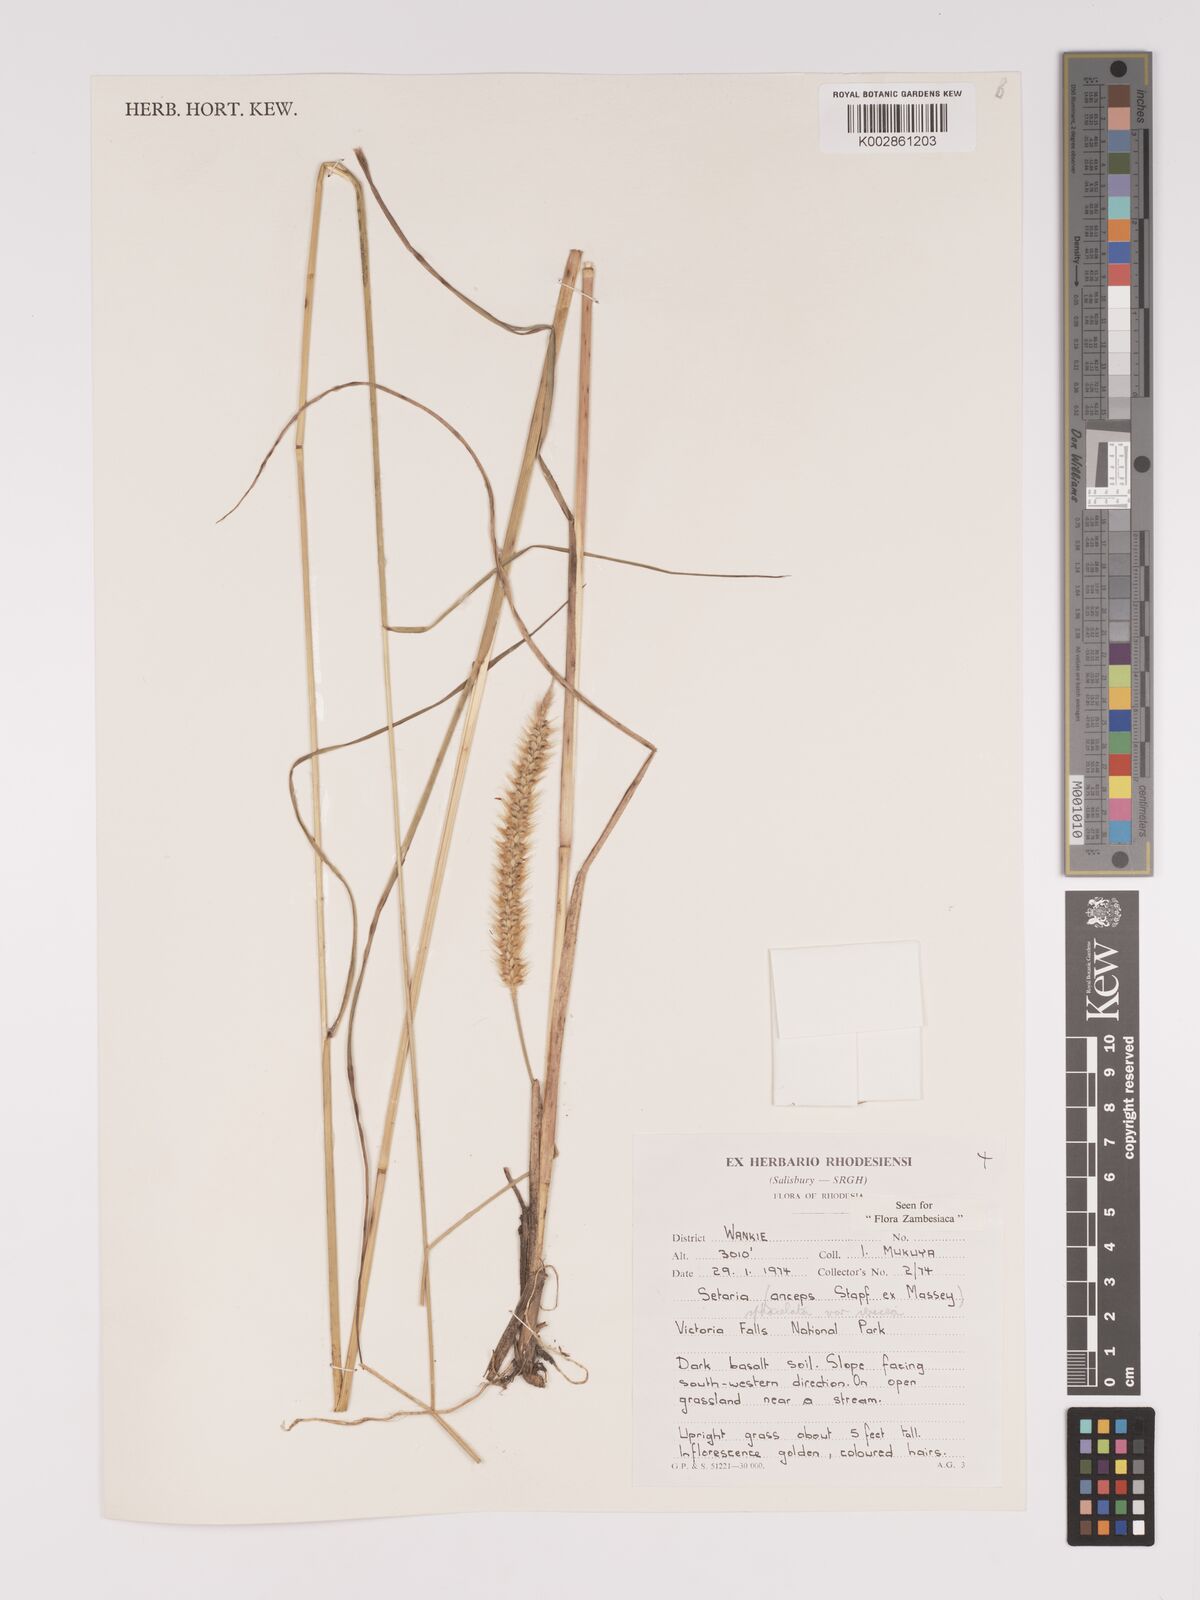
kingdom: Plantae
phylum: Tracheophyta
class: Liliopsida
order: Poales
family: Poaceae
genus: Setaria
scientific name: Setaria sphacelata
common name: African bristlegrass
